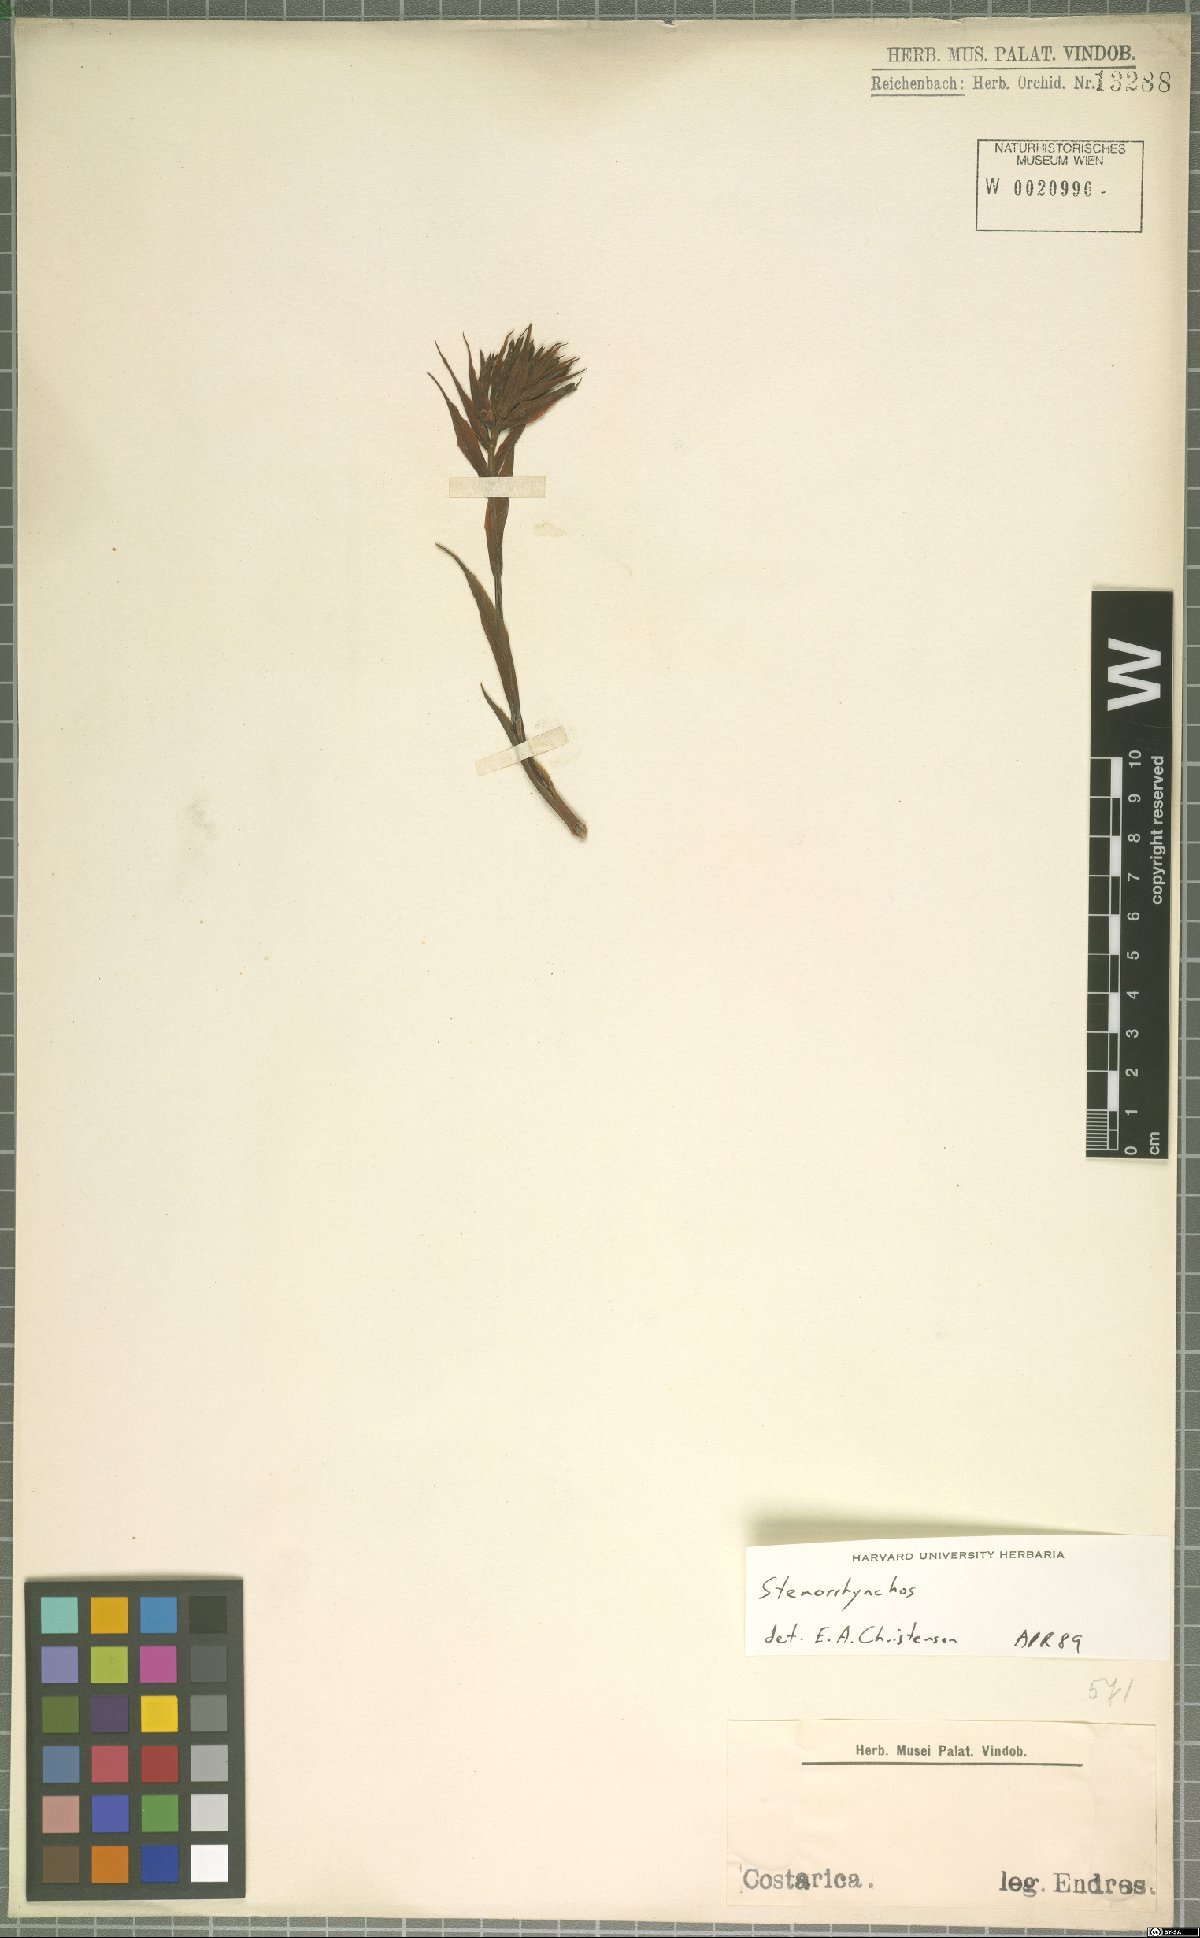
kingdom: Plantae
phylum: Tracheophyta
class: Liliopsida
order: Asparagales
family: Orchidaceae
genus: Stenorrhynchos
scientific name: Stenorrhynchos
